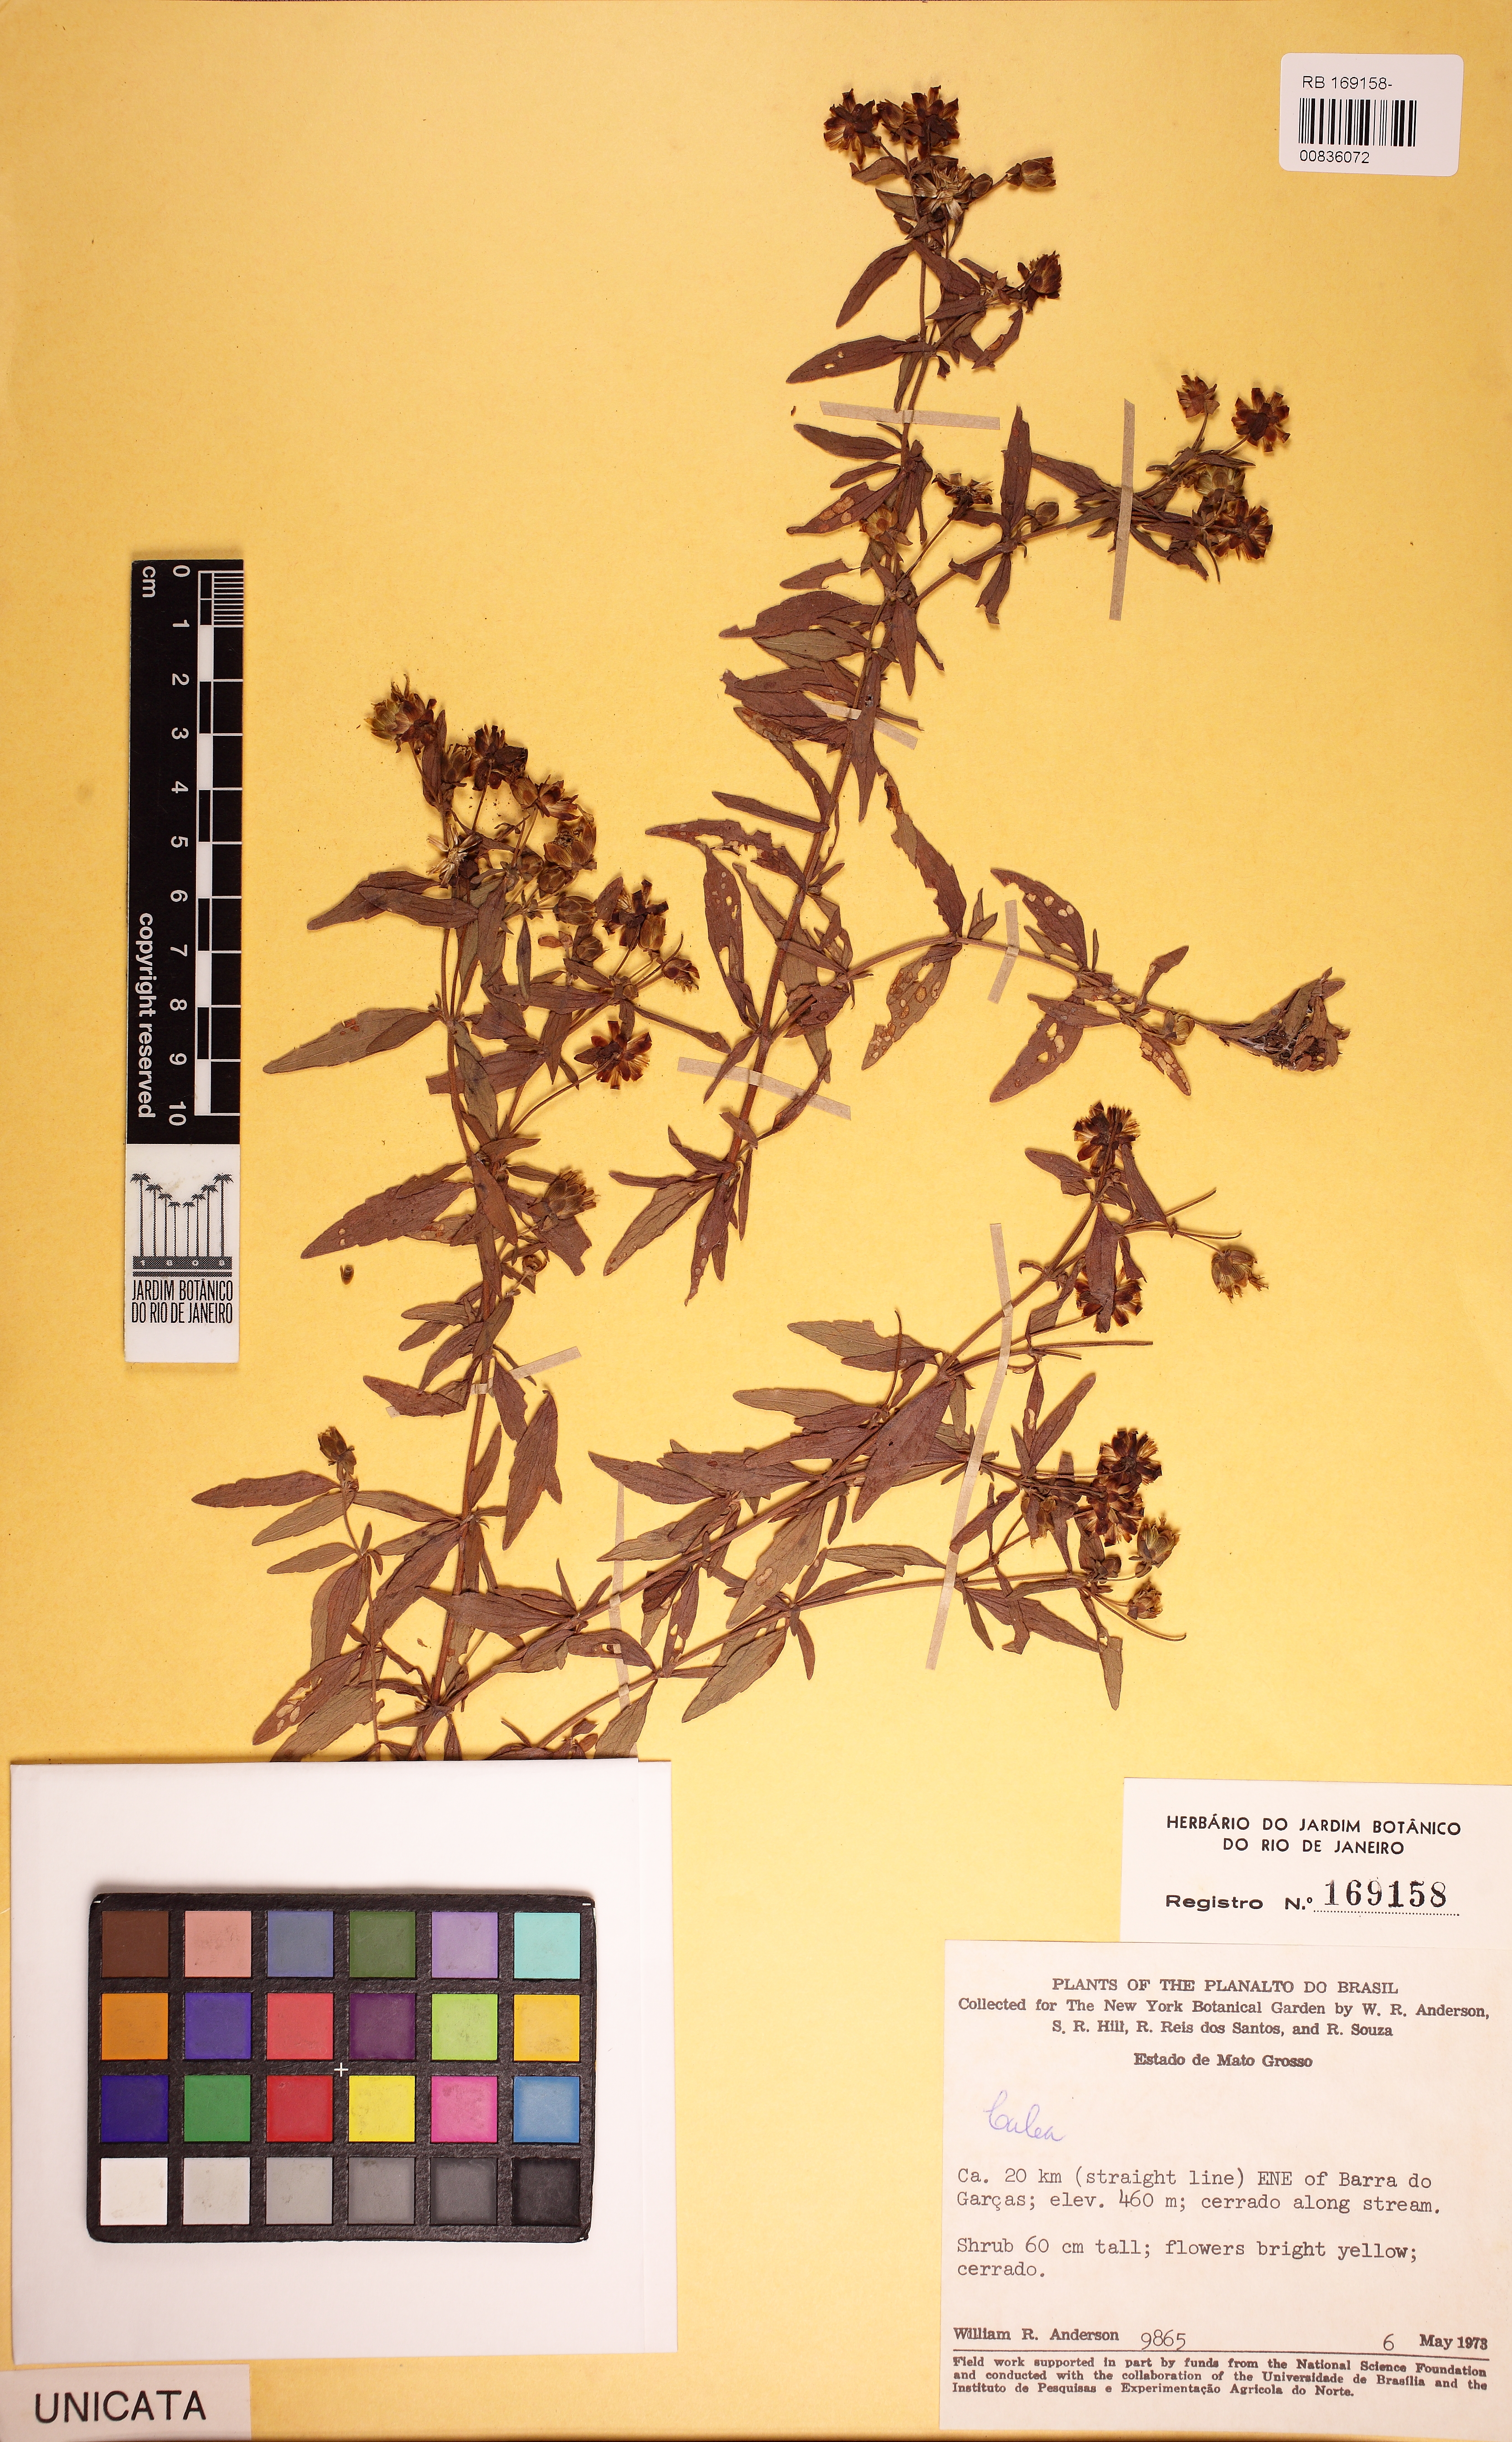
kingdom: Plantae
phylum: Tracheophyta
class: Magnoliopsida
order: Asterales
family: Asteraceae
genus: Calea
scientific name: Calea candolleana
